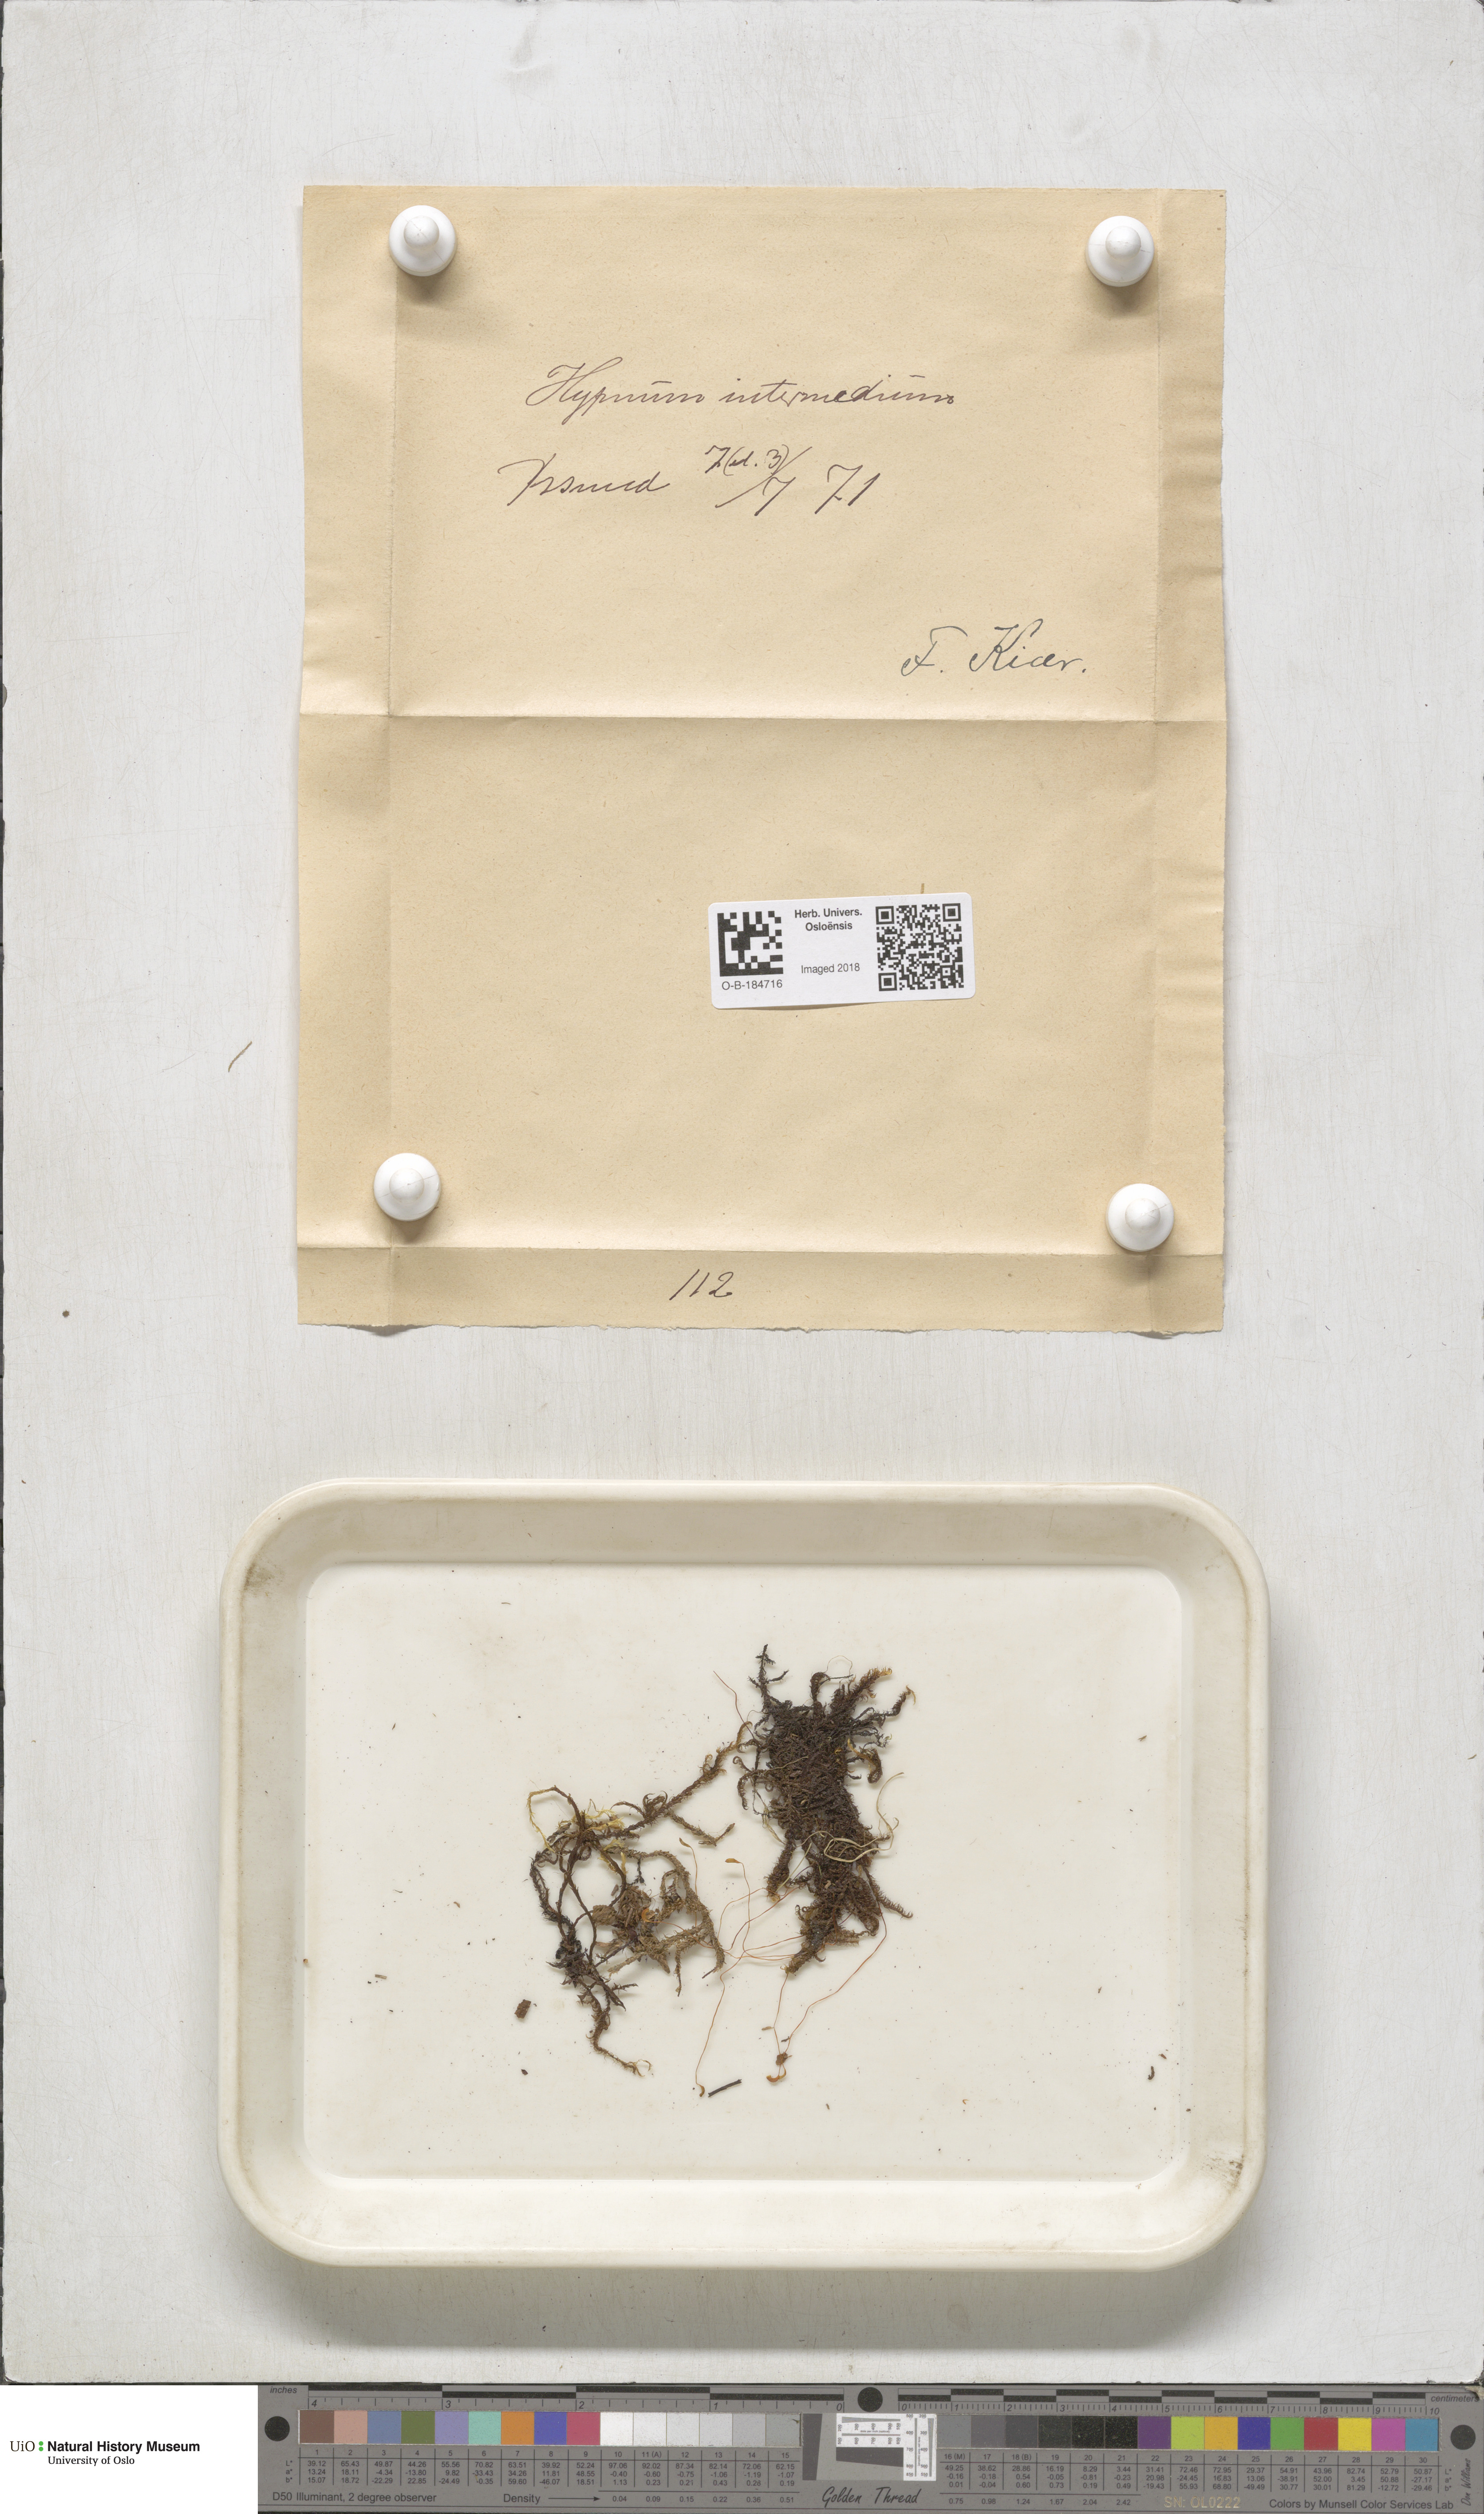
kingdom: Plantae
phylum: Bryophyta
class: Bryopsida
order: Hypnales
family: Scorpidiaceae
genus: Scorpidium
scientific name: Scorpidium cossonii
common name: Cosson's hook moss
